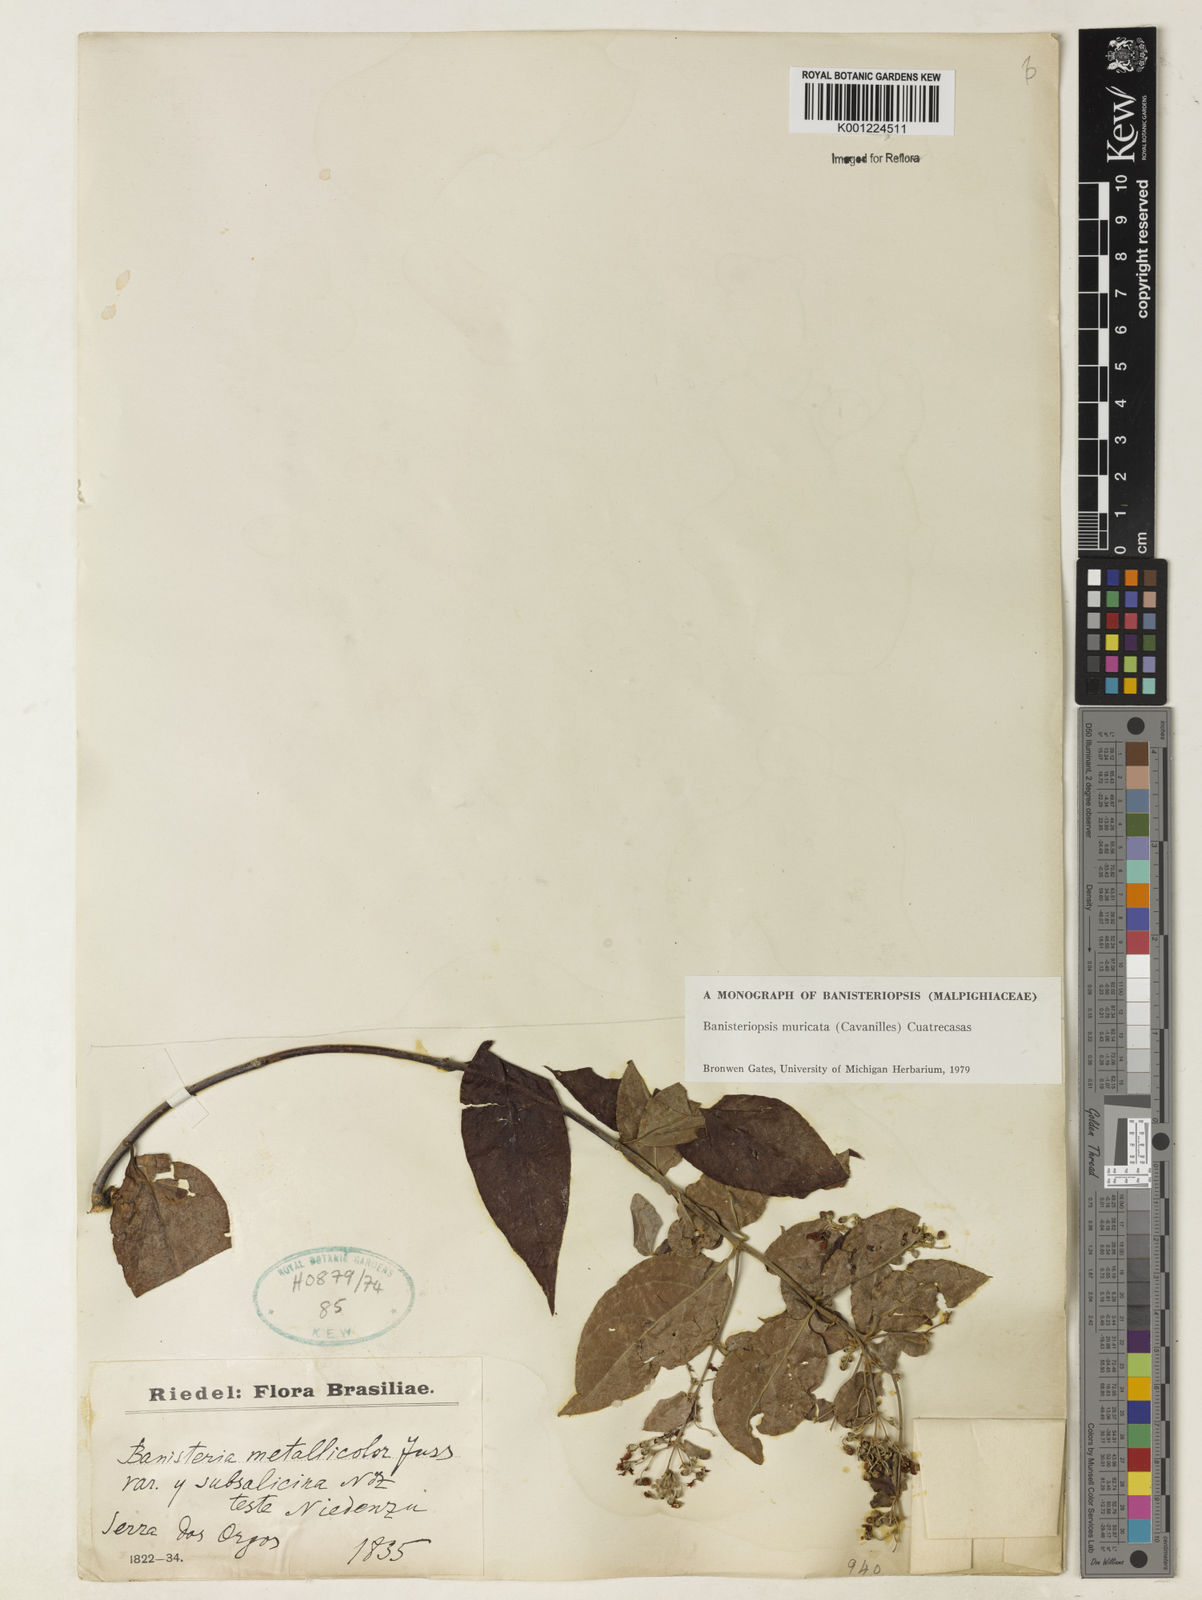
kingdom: Plantae
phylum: Tracheophyta
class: Magnoliopsida
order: Malpighiales
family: Malpighiaceae
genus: Banisteriopsis
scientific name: Banisteriopsis muricata
